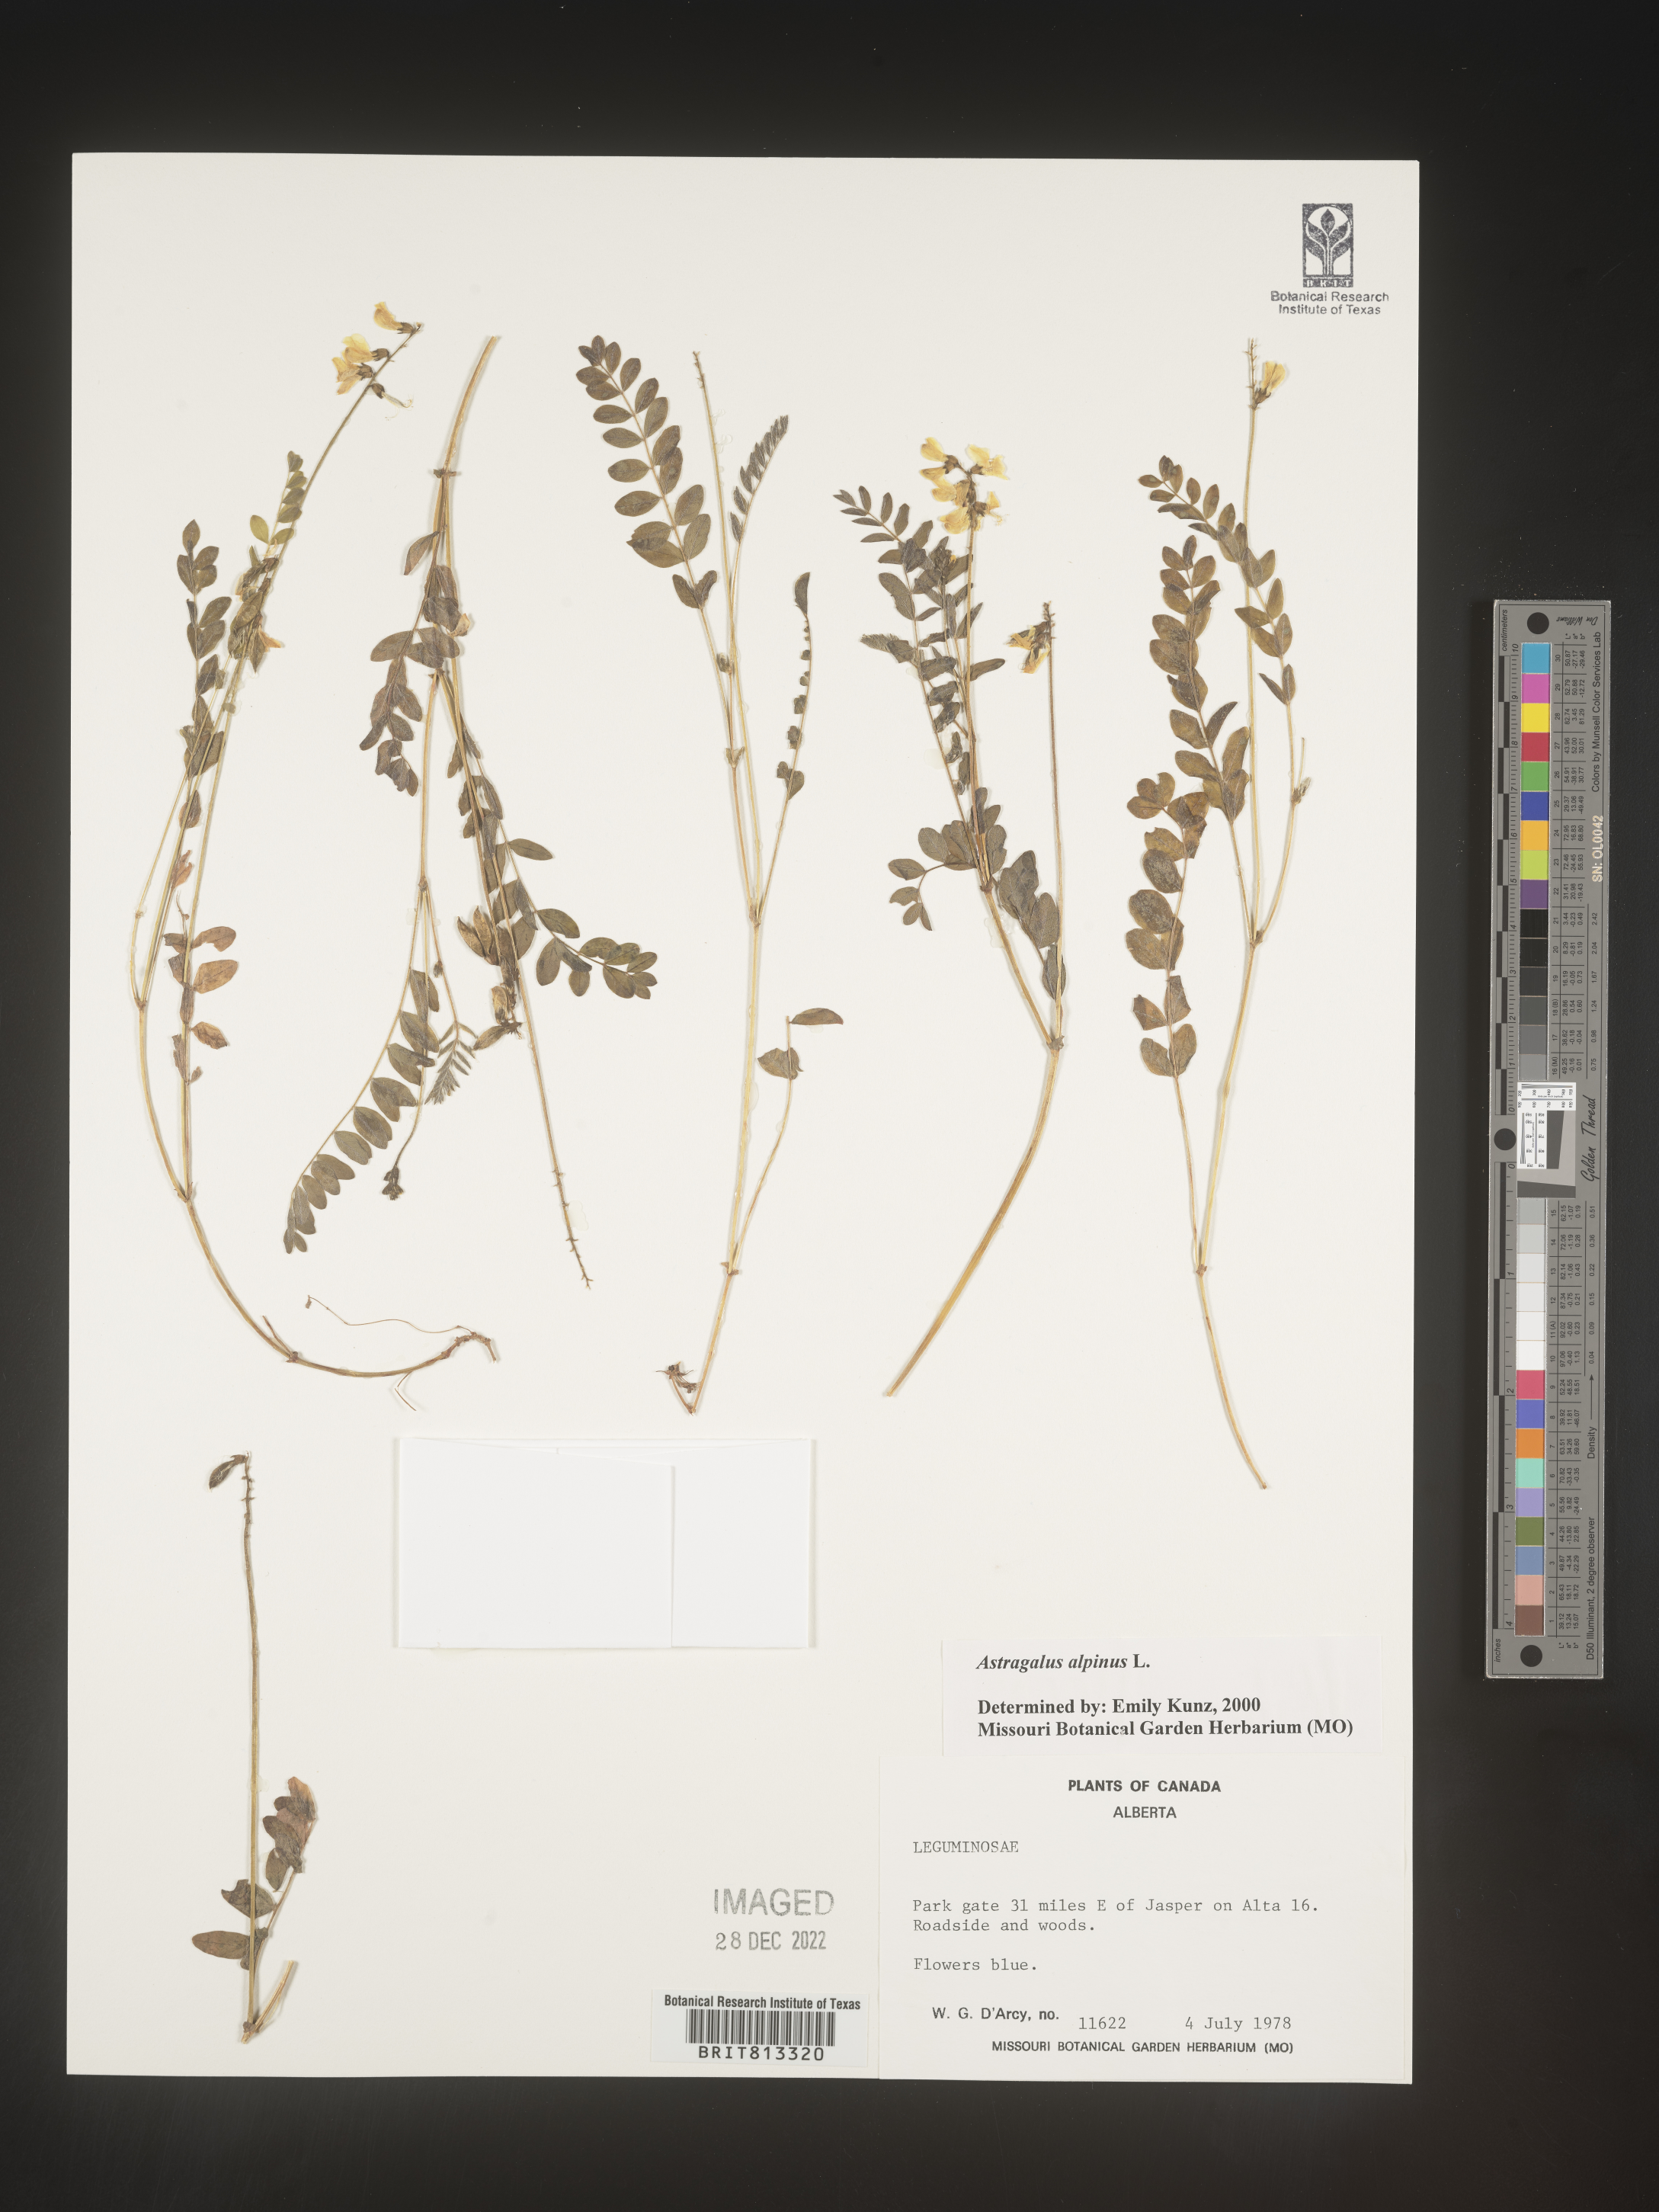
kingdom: Plantae
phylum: Tracheophyta
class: Magnoliopsida
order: Fabales
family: Fabaceae
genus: Astragalus
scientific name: Astragalus alpinus
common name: Alpine milk-vetch
